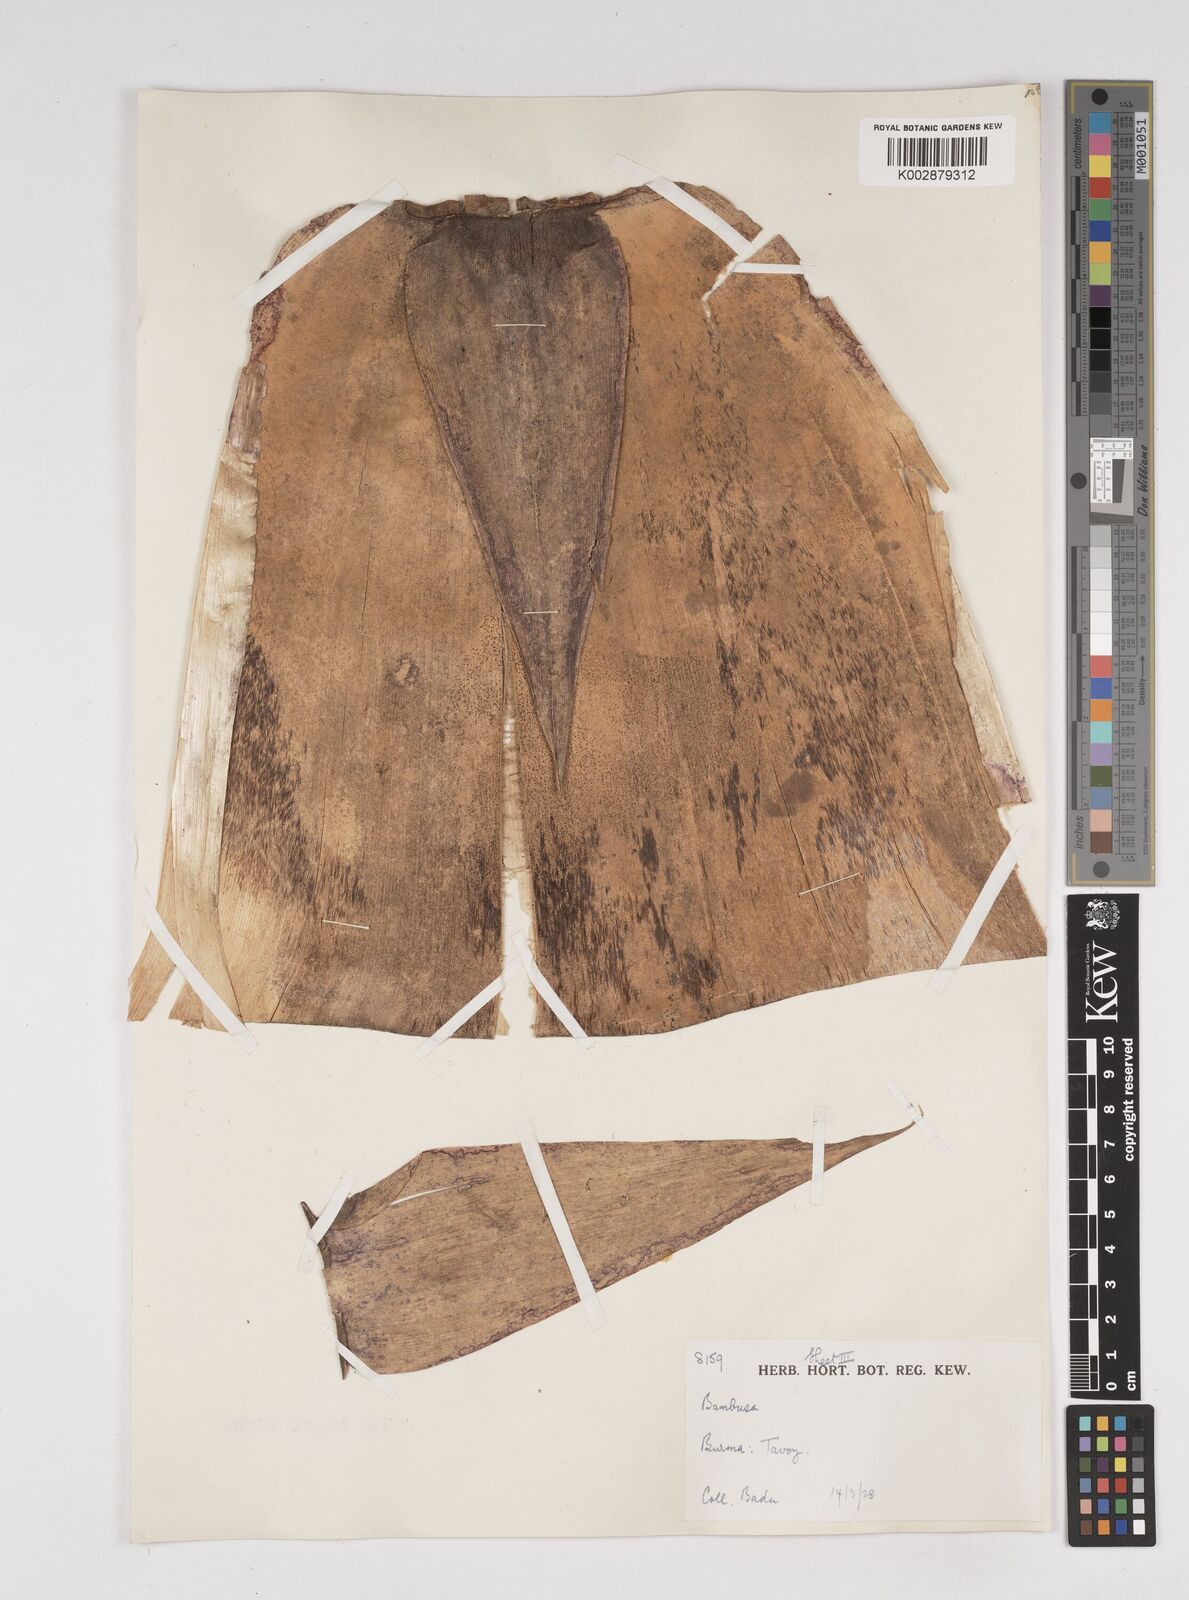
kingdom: Plantae
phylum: Tracheophyta
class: Liliopsida
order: Poales
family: Poaceae
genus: Dendrocalamus
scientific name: Dendrocalamus
